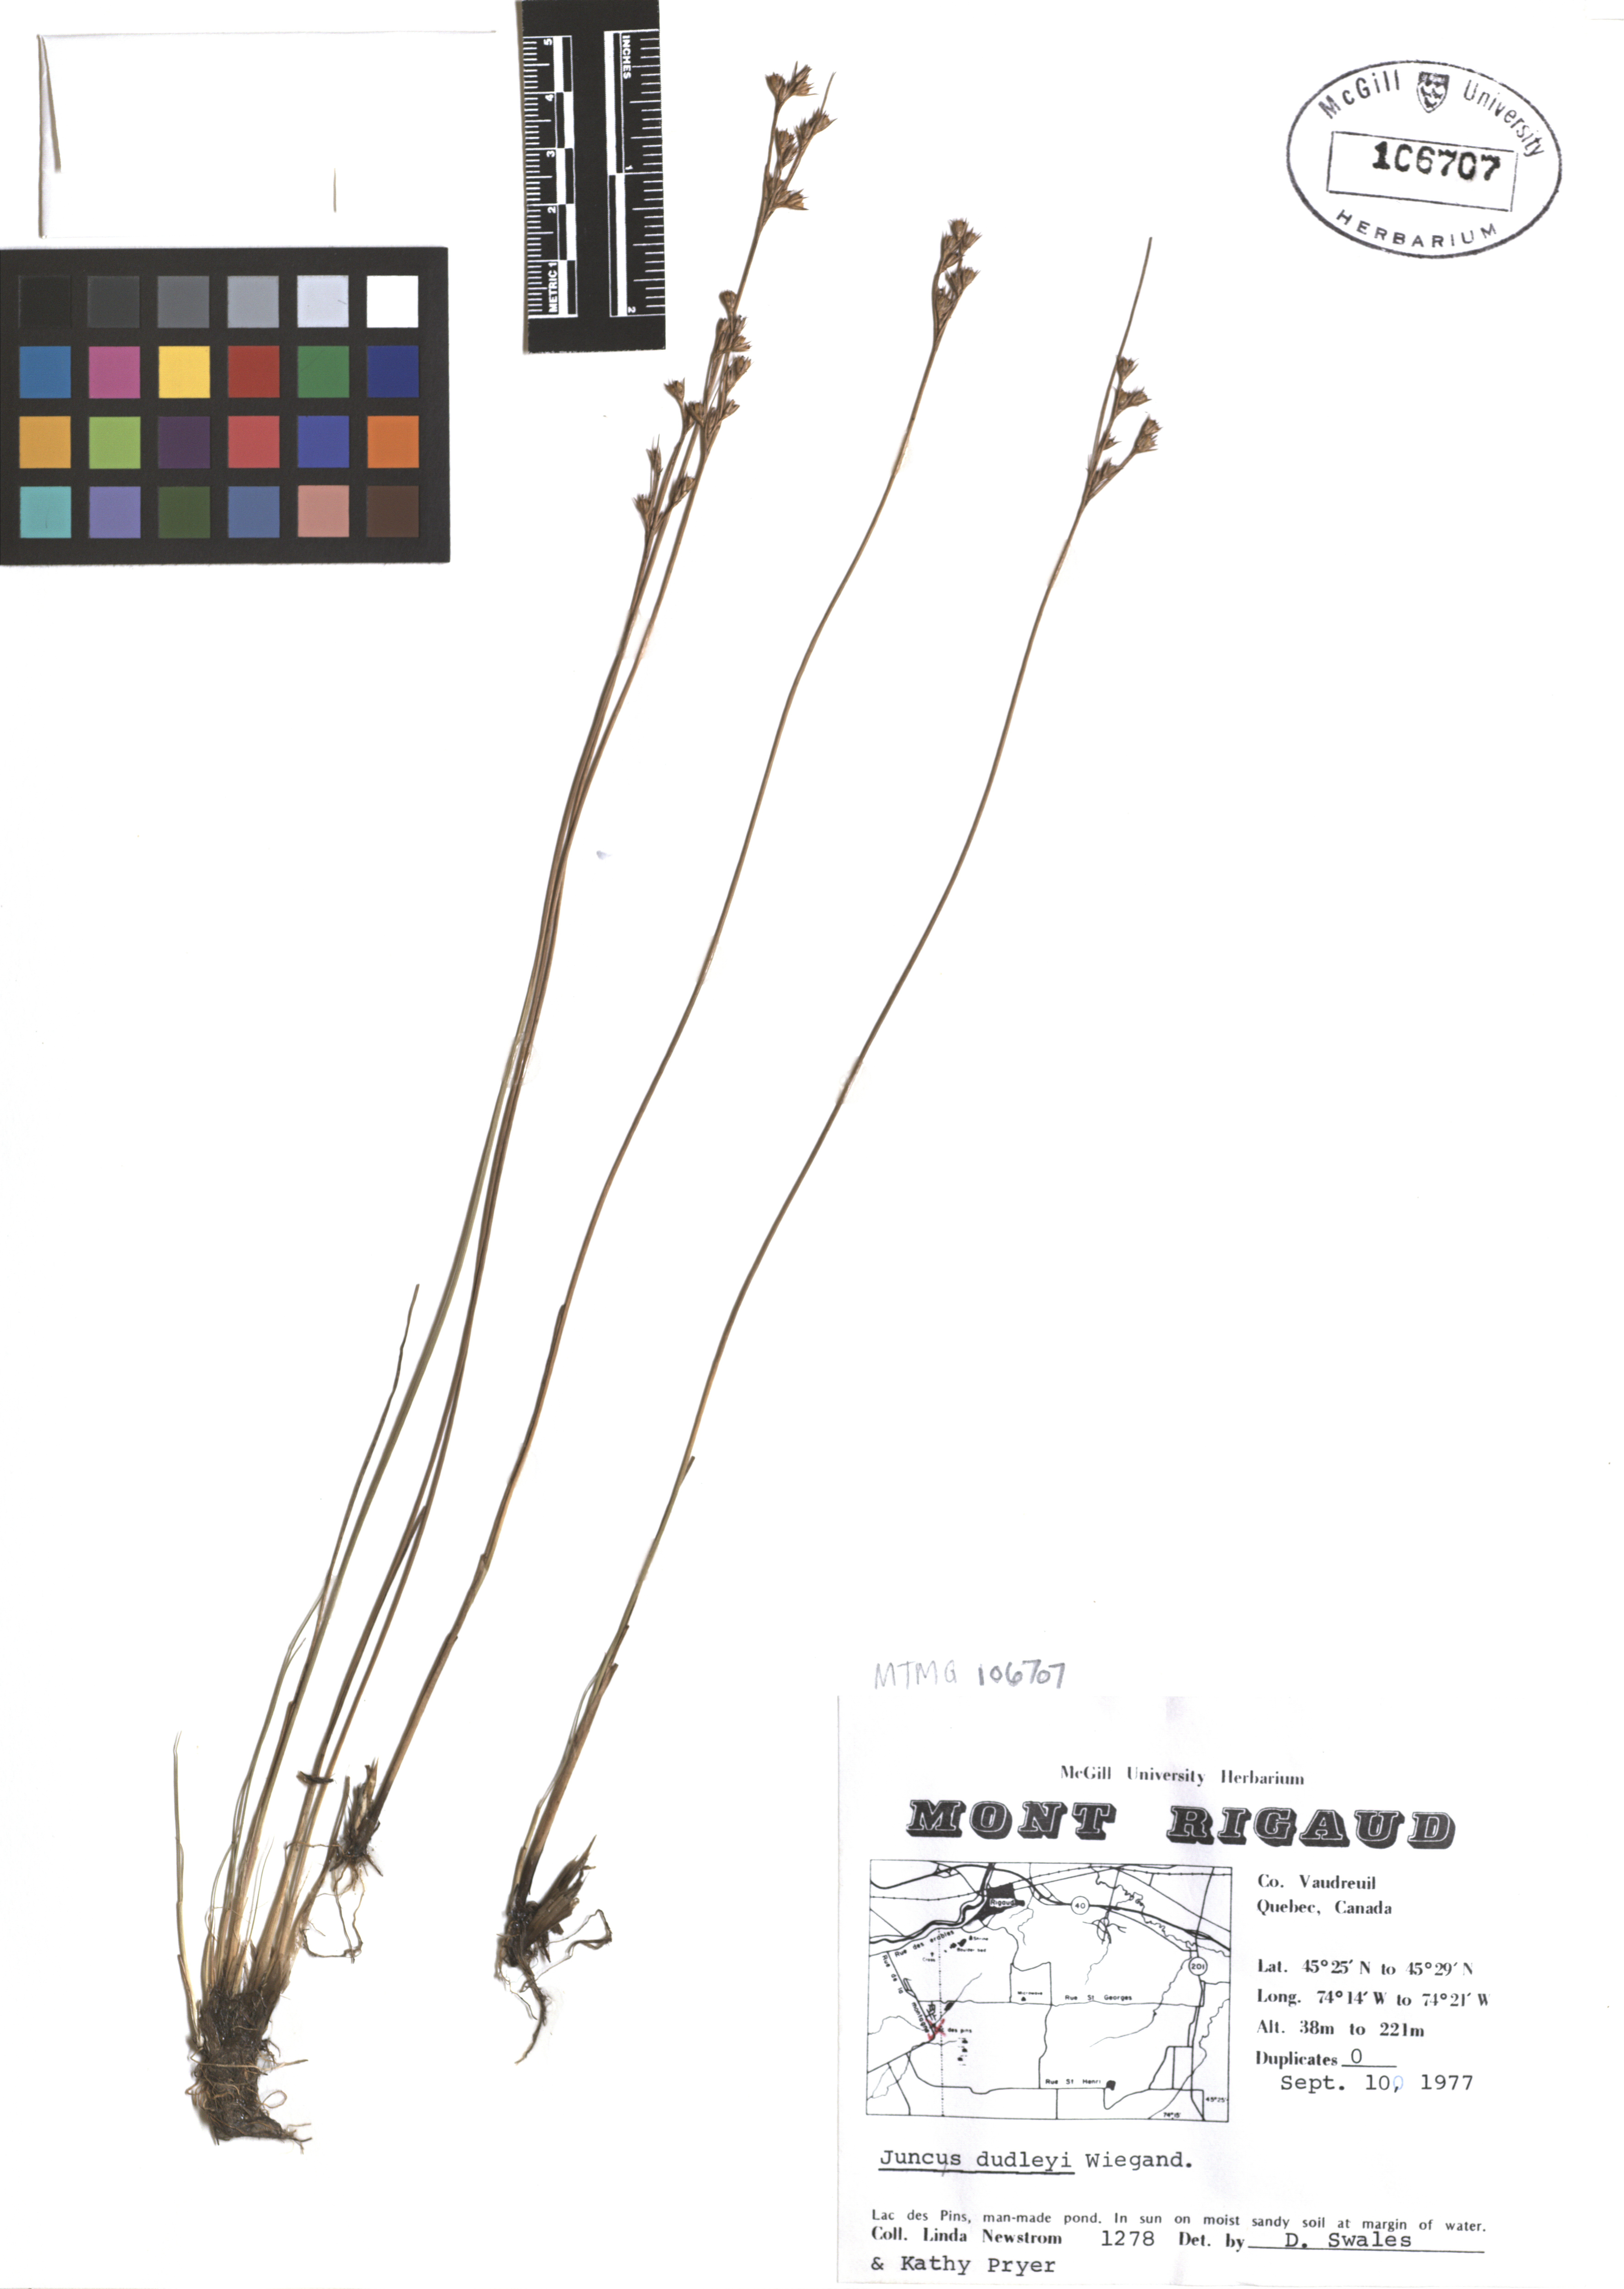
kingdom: Plantae
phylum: Tracheophyta
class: Liliopsida
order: Poales
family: Juncaceae
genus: Juncus
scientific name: Juncus dudleyi
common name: Dudley's rush
